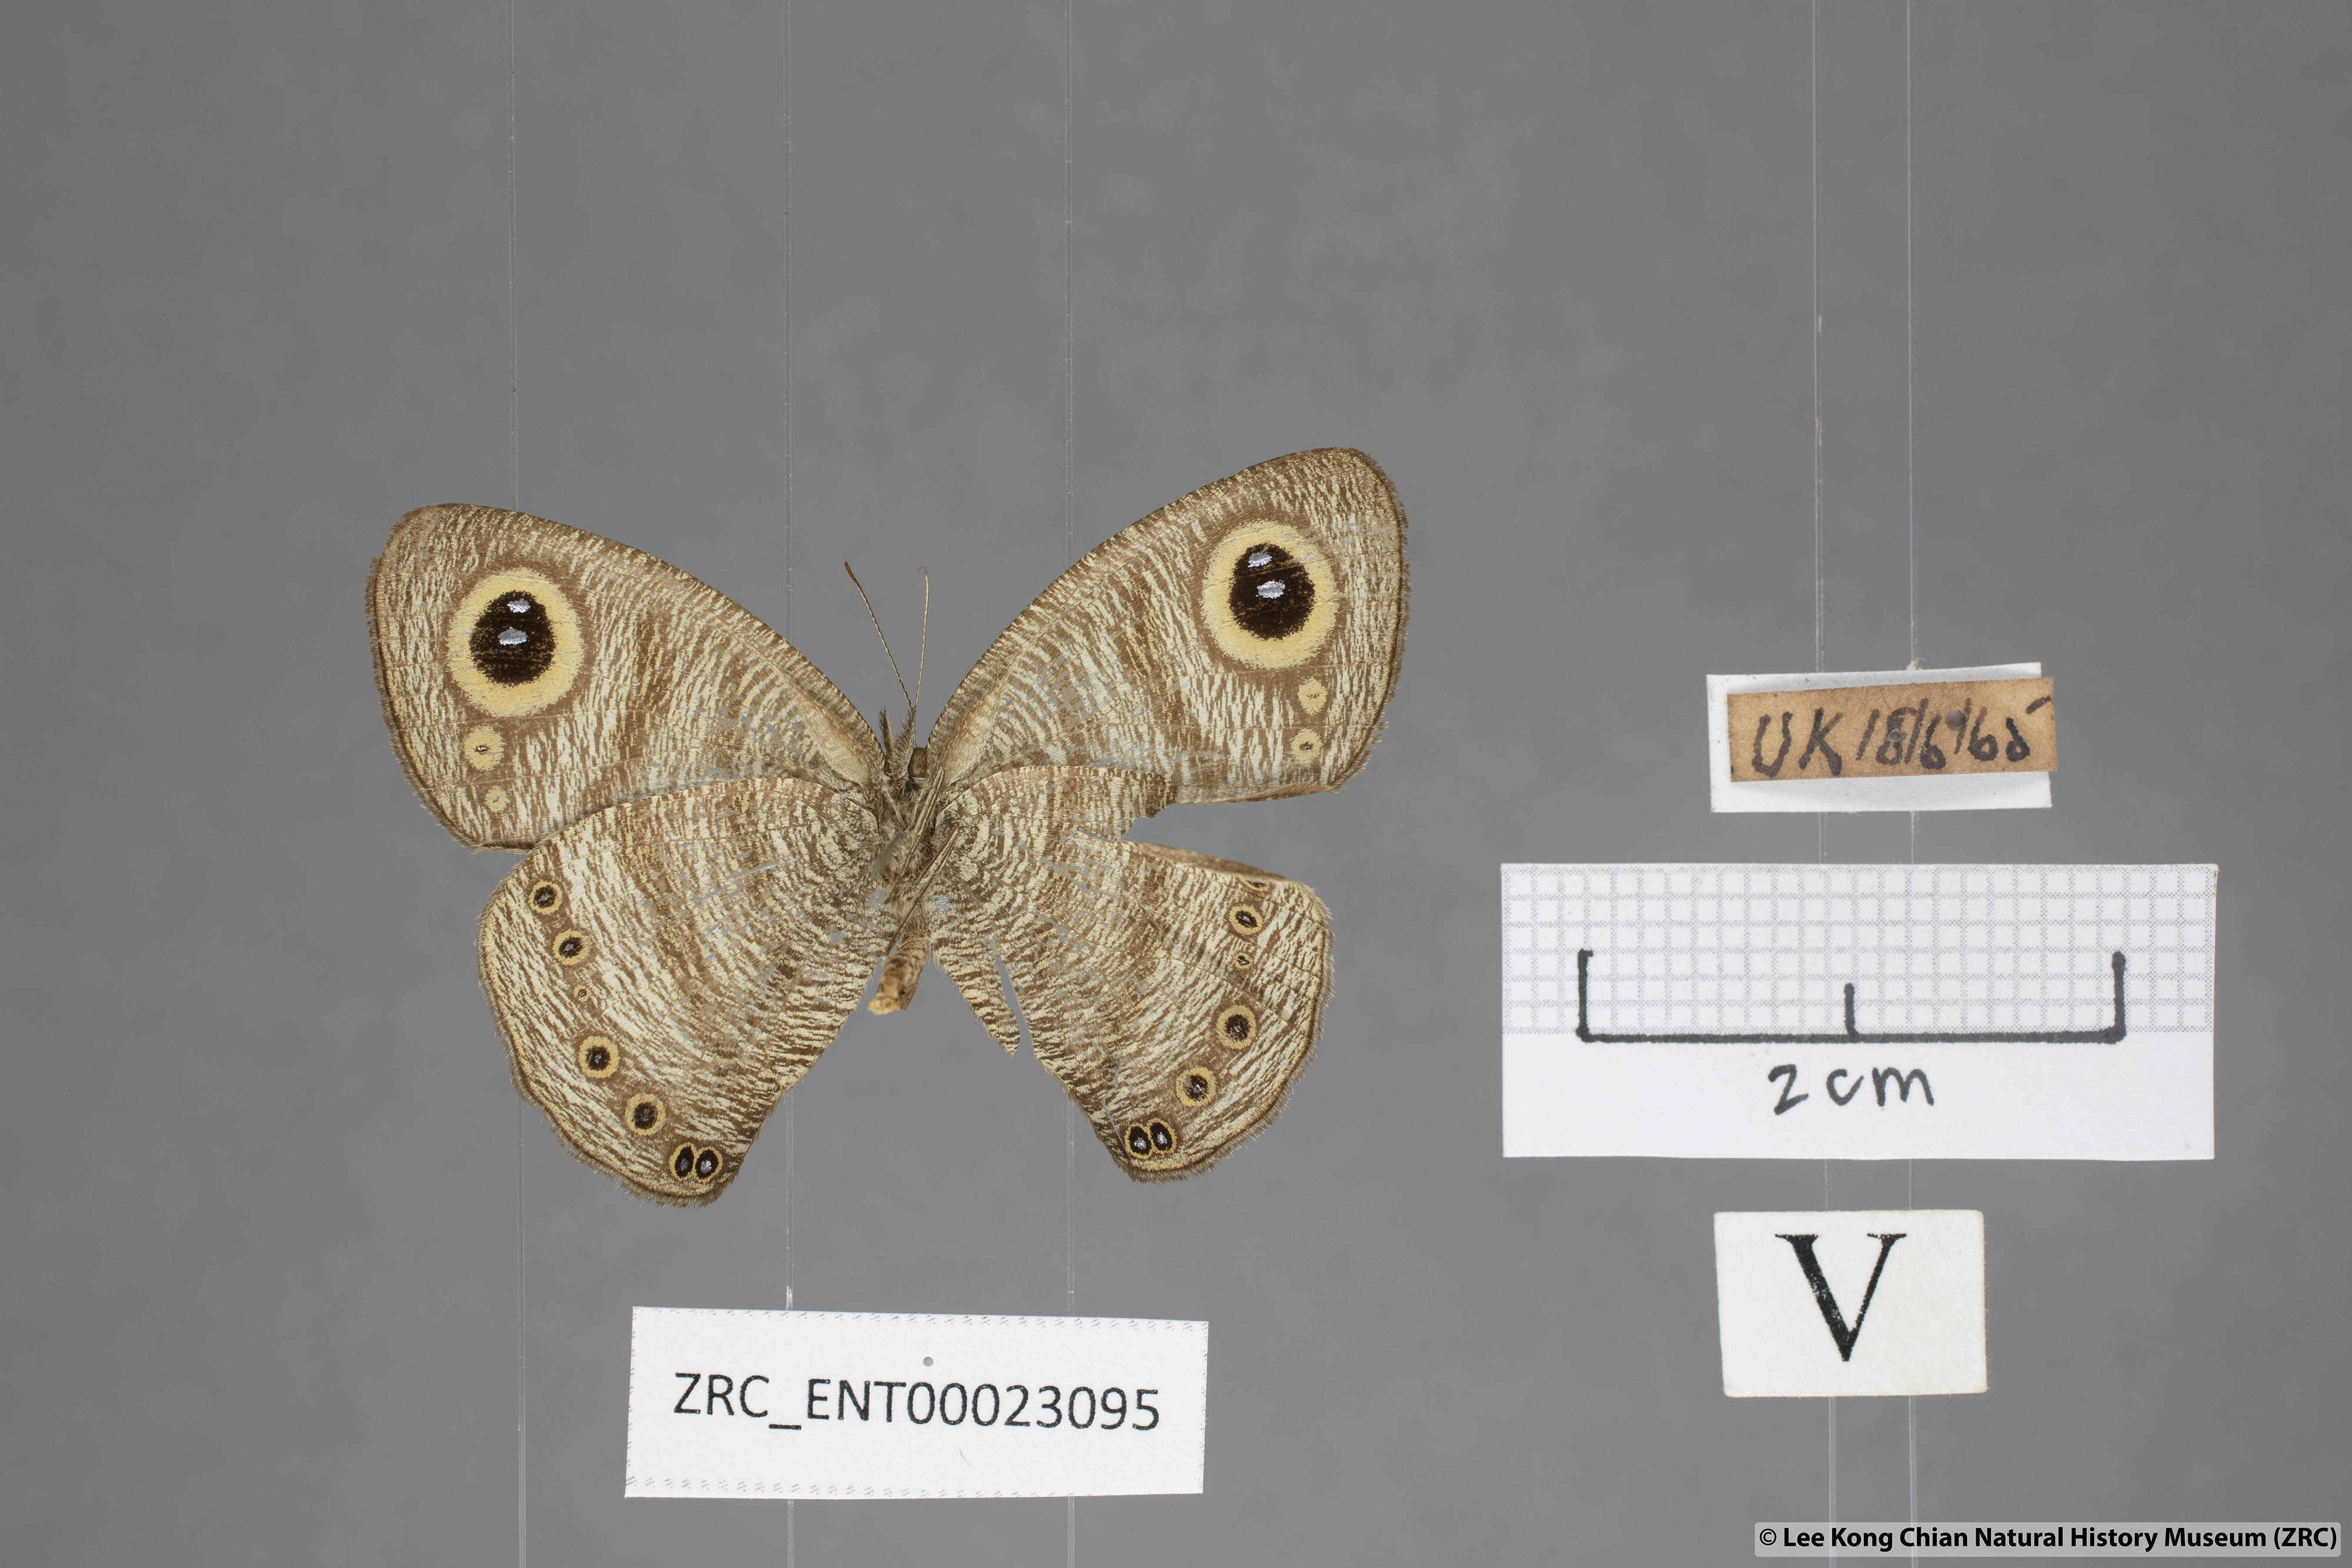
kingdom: Animalia
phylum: Arthropoda
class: Insecta
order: Lepidoptera
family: Nymphalidae
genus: Ypthima
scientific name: Ypthima fasciata
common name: Malayan six-ring
